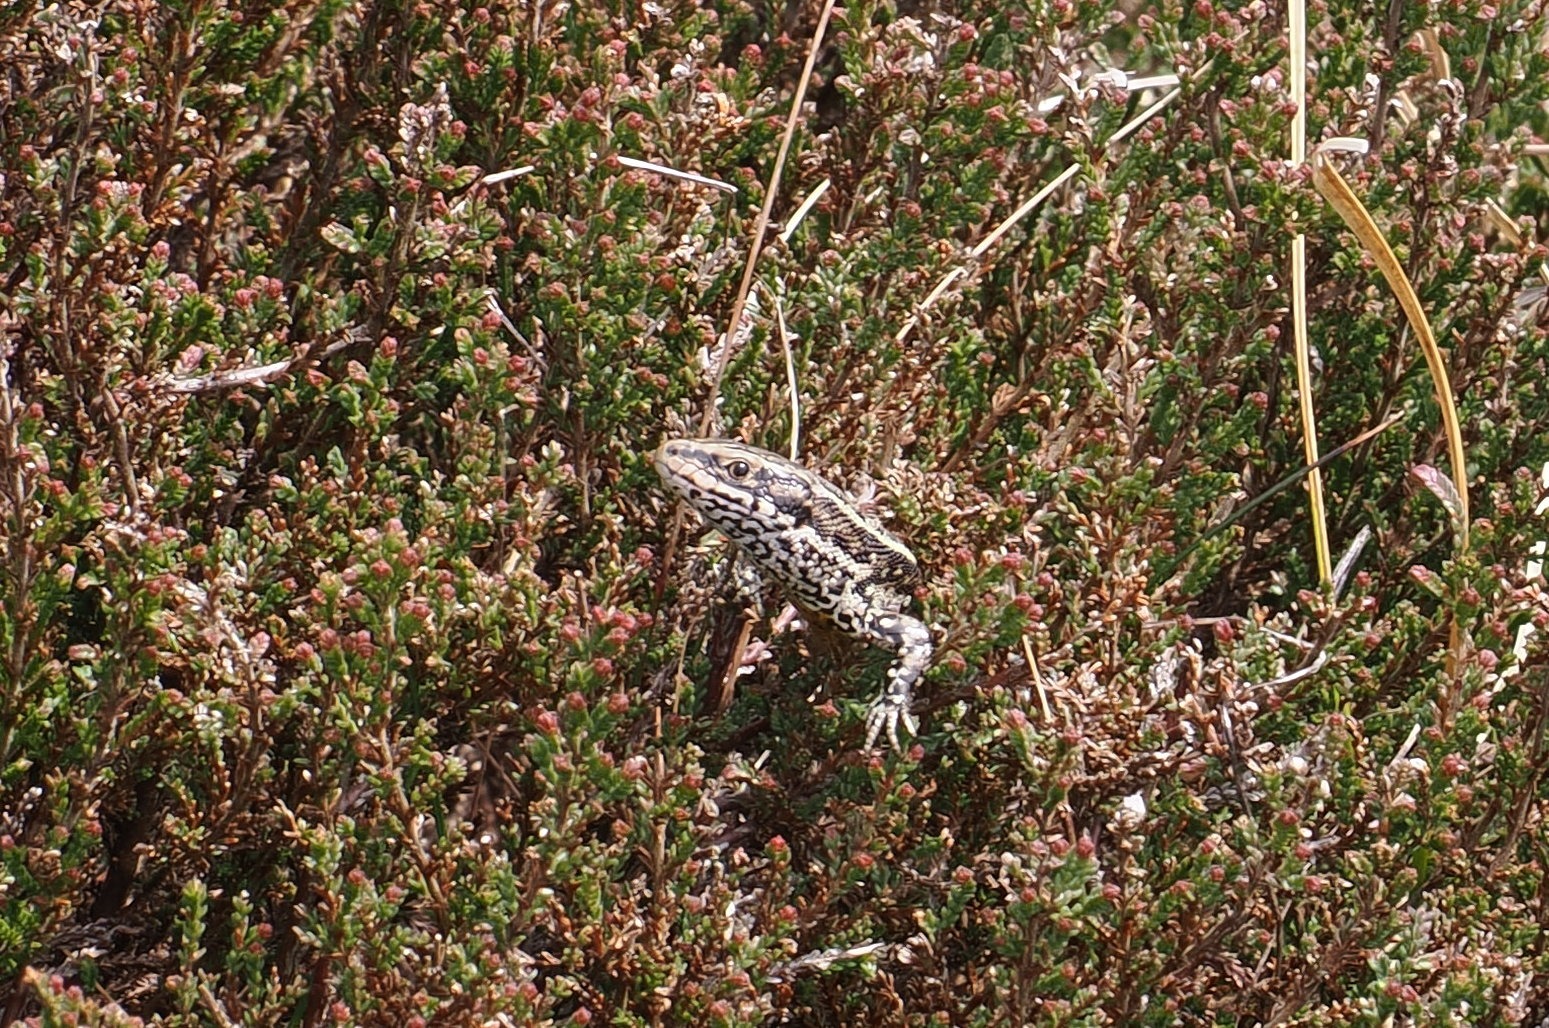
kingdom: Animalia
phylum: Chordata
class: Squamata
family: Lacertidae
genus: Zootoca
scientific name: Zootoca vivipara
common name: Skovfirben
